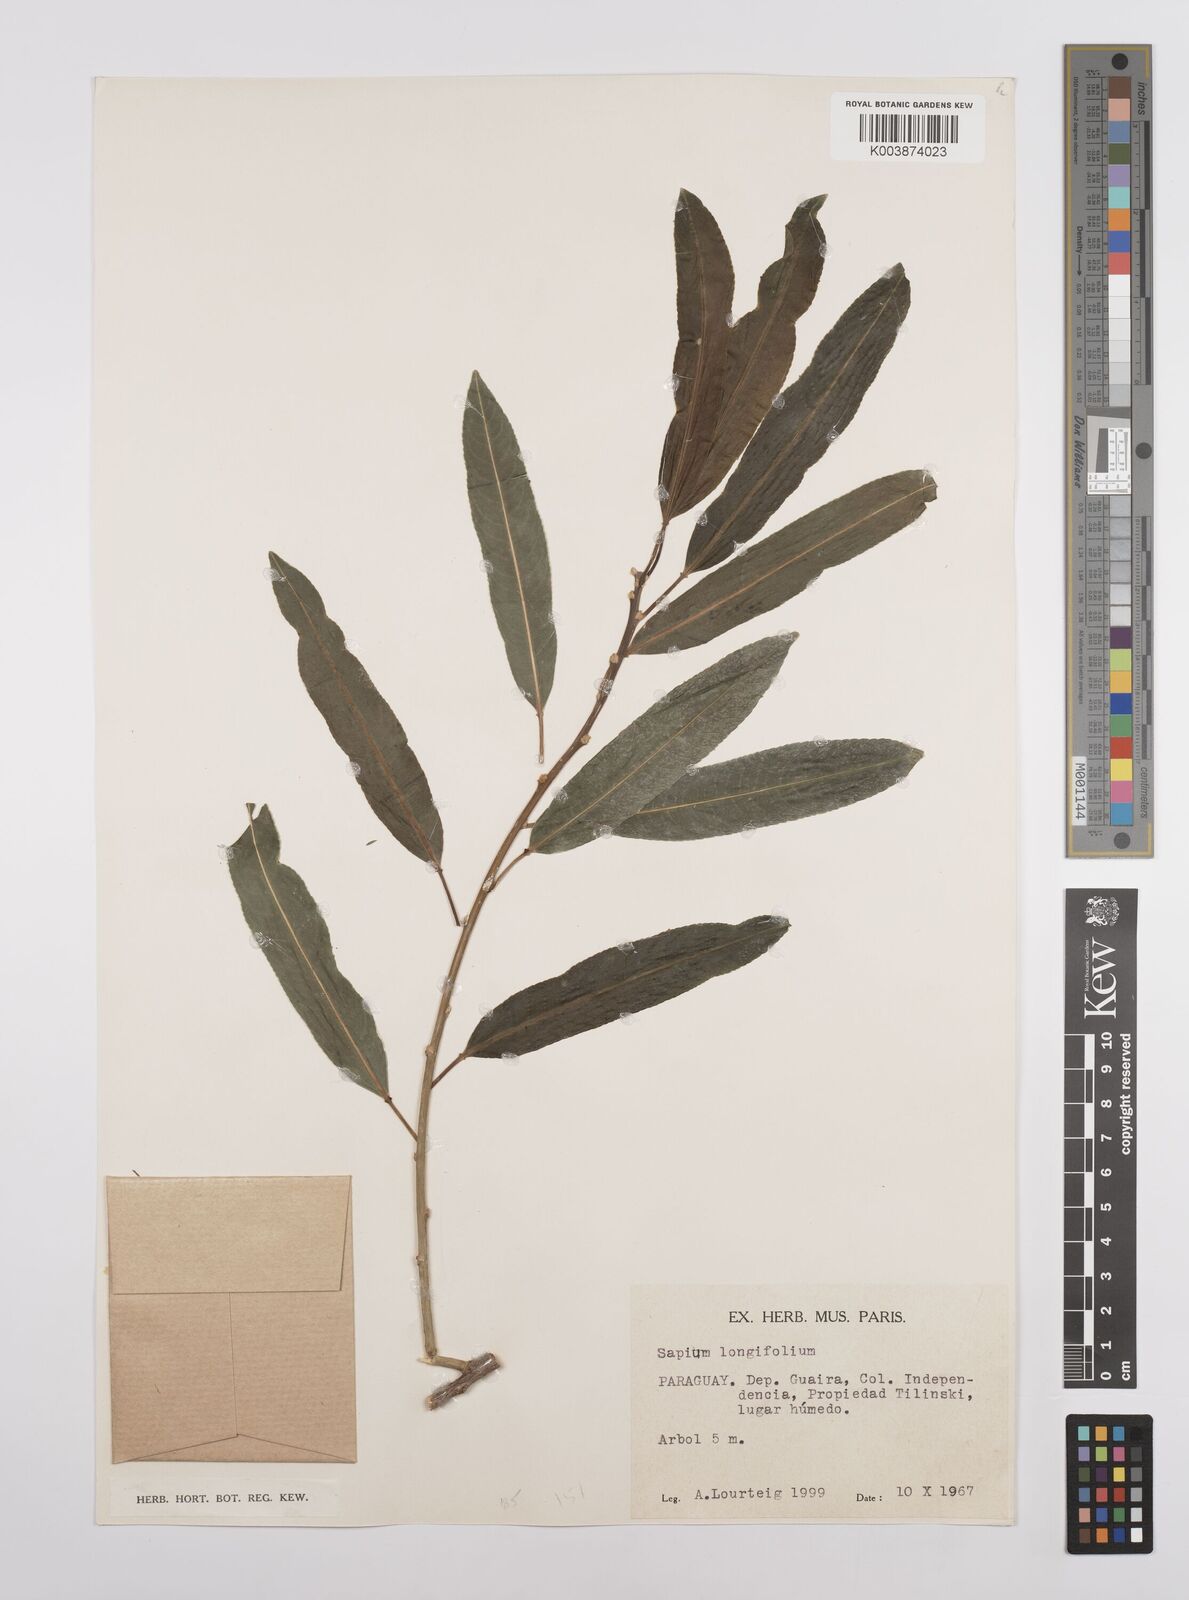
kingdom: Plantae
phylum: Tracheophyta
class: Magnoliopsida
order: Malpighiales
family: Euphorbiaceae
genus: Sapium
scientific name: Sapium haematospermum
